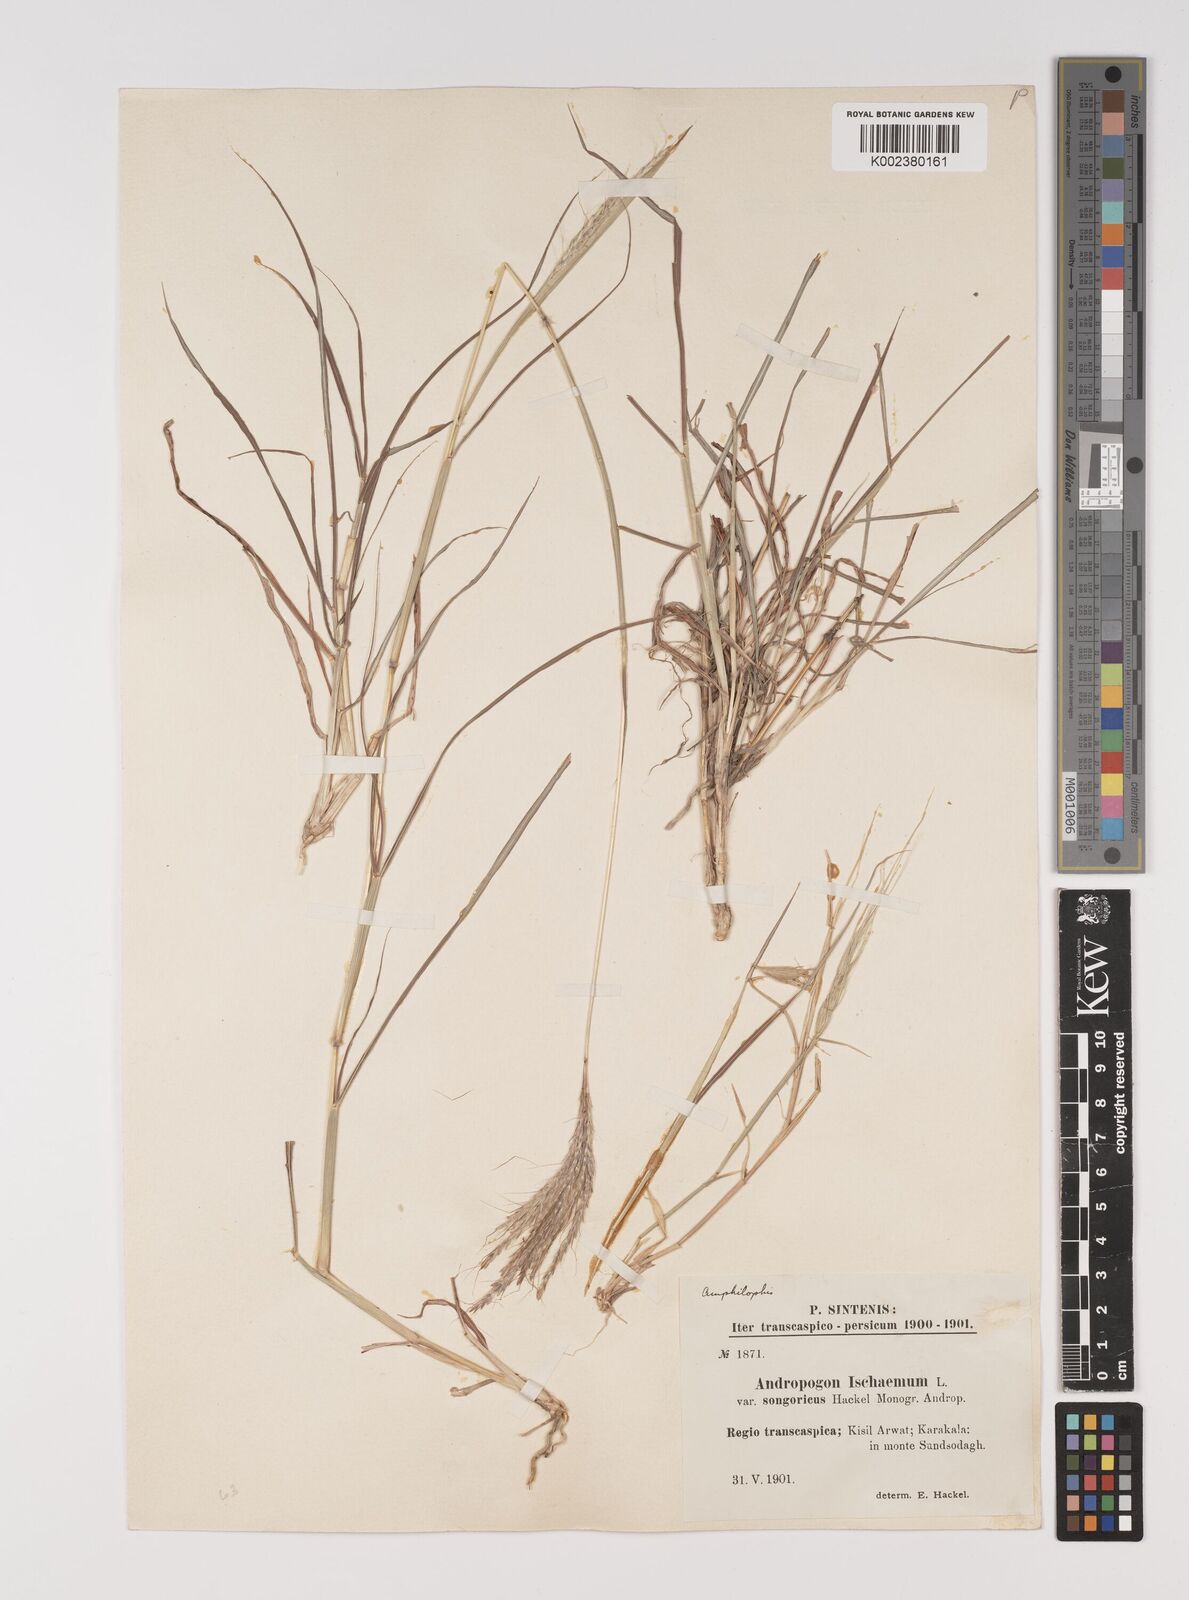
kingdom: Plantae
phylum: Tracheophyta
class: Liliopsida
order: Poales
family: Poaceae
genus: Bothriochloa
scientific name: Bothriochloa ischaemum
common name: Yellow bluestem
